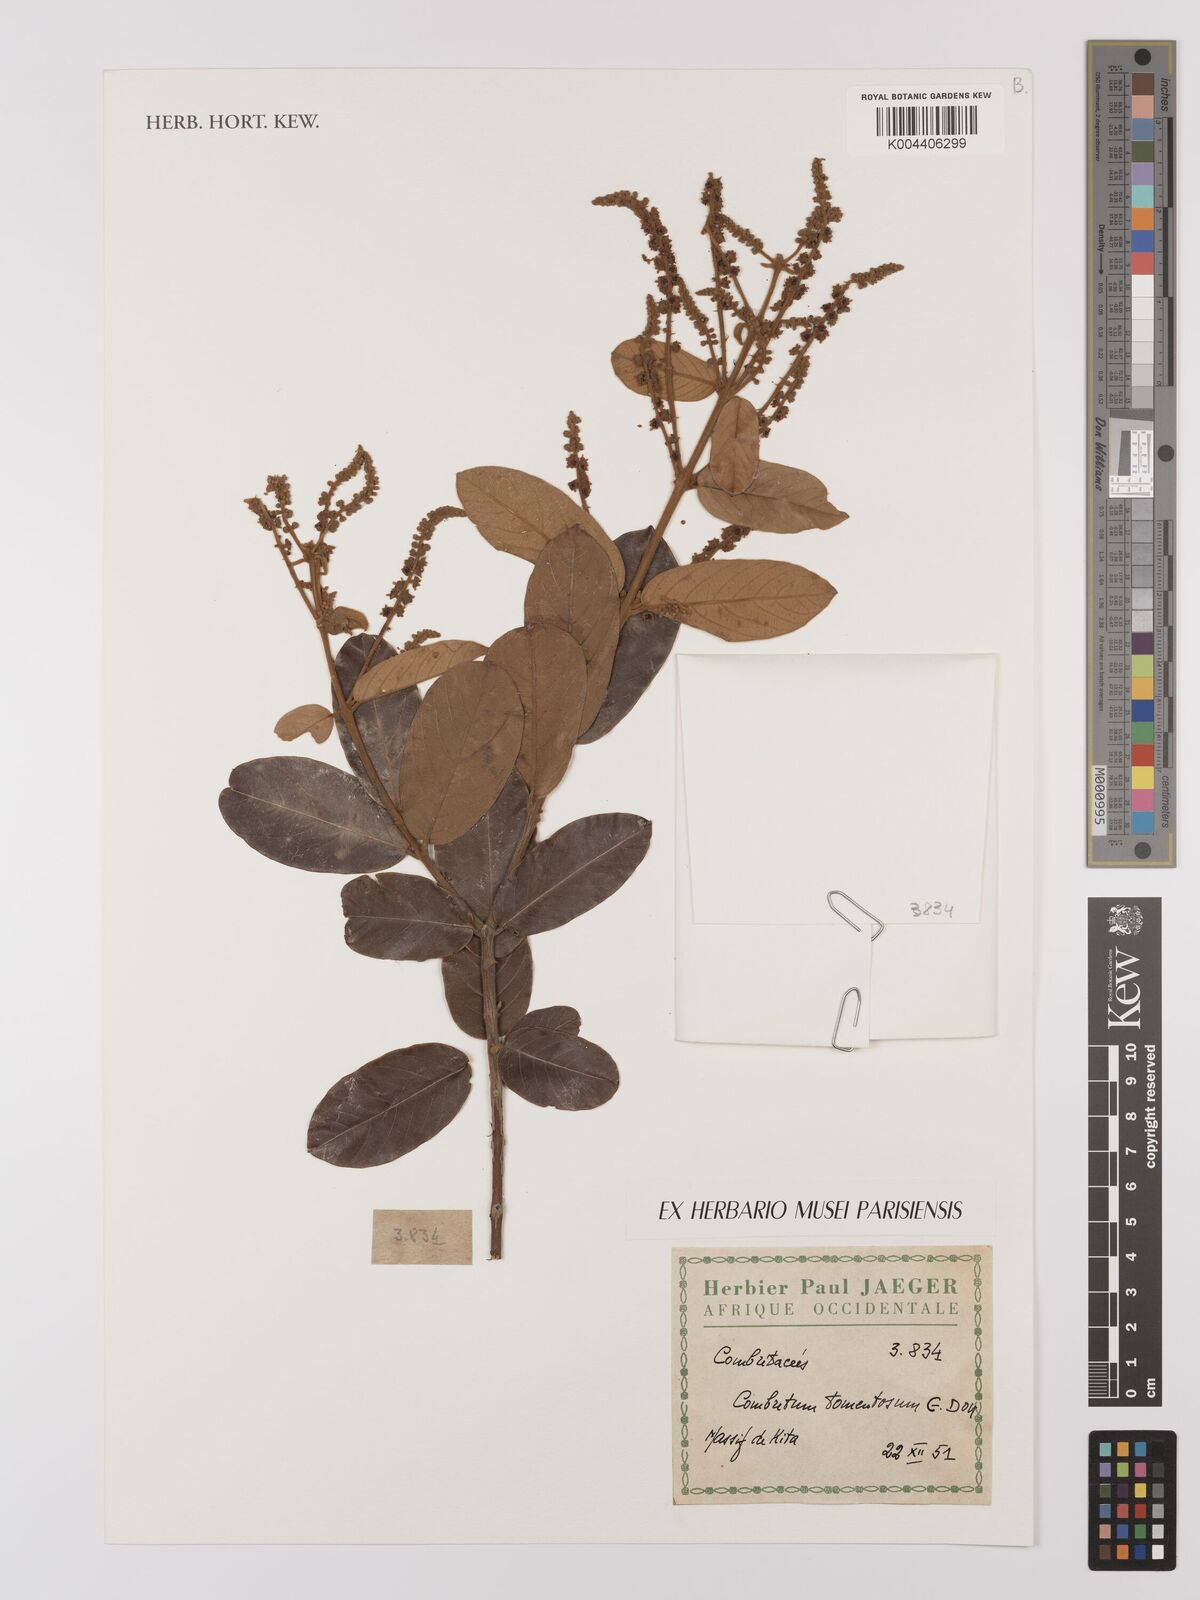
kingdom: Plantae
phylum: Tracheophyta
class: Magnoliopsida
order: Myrtales
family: Combretaceae
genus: Combretum
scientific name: Combretum
